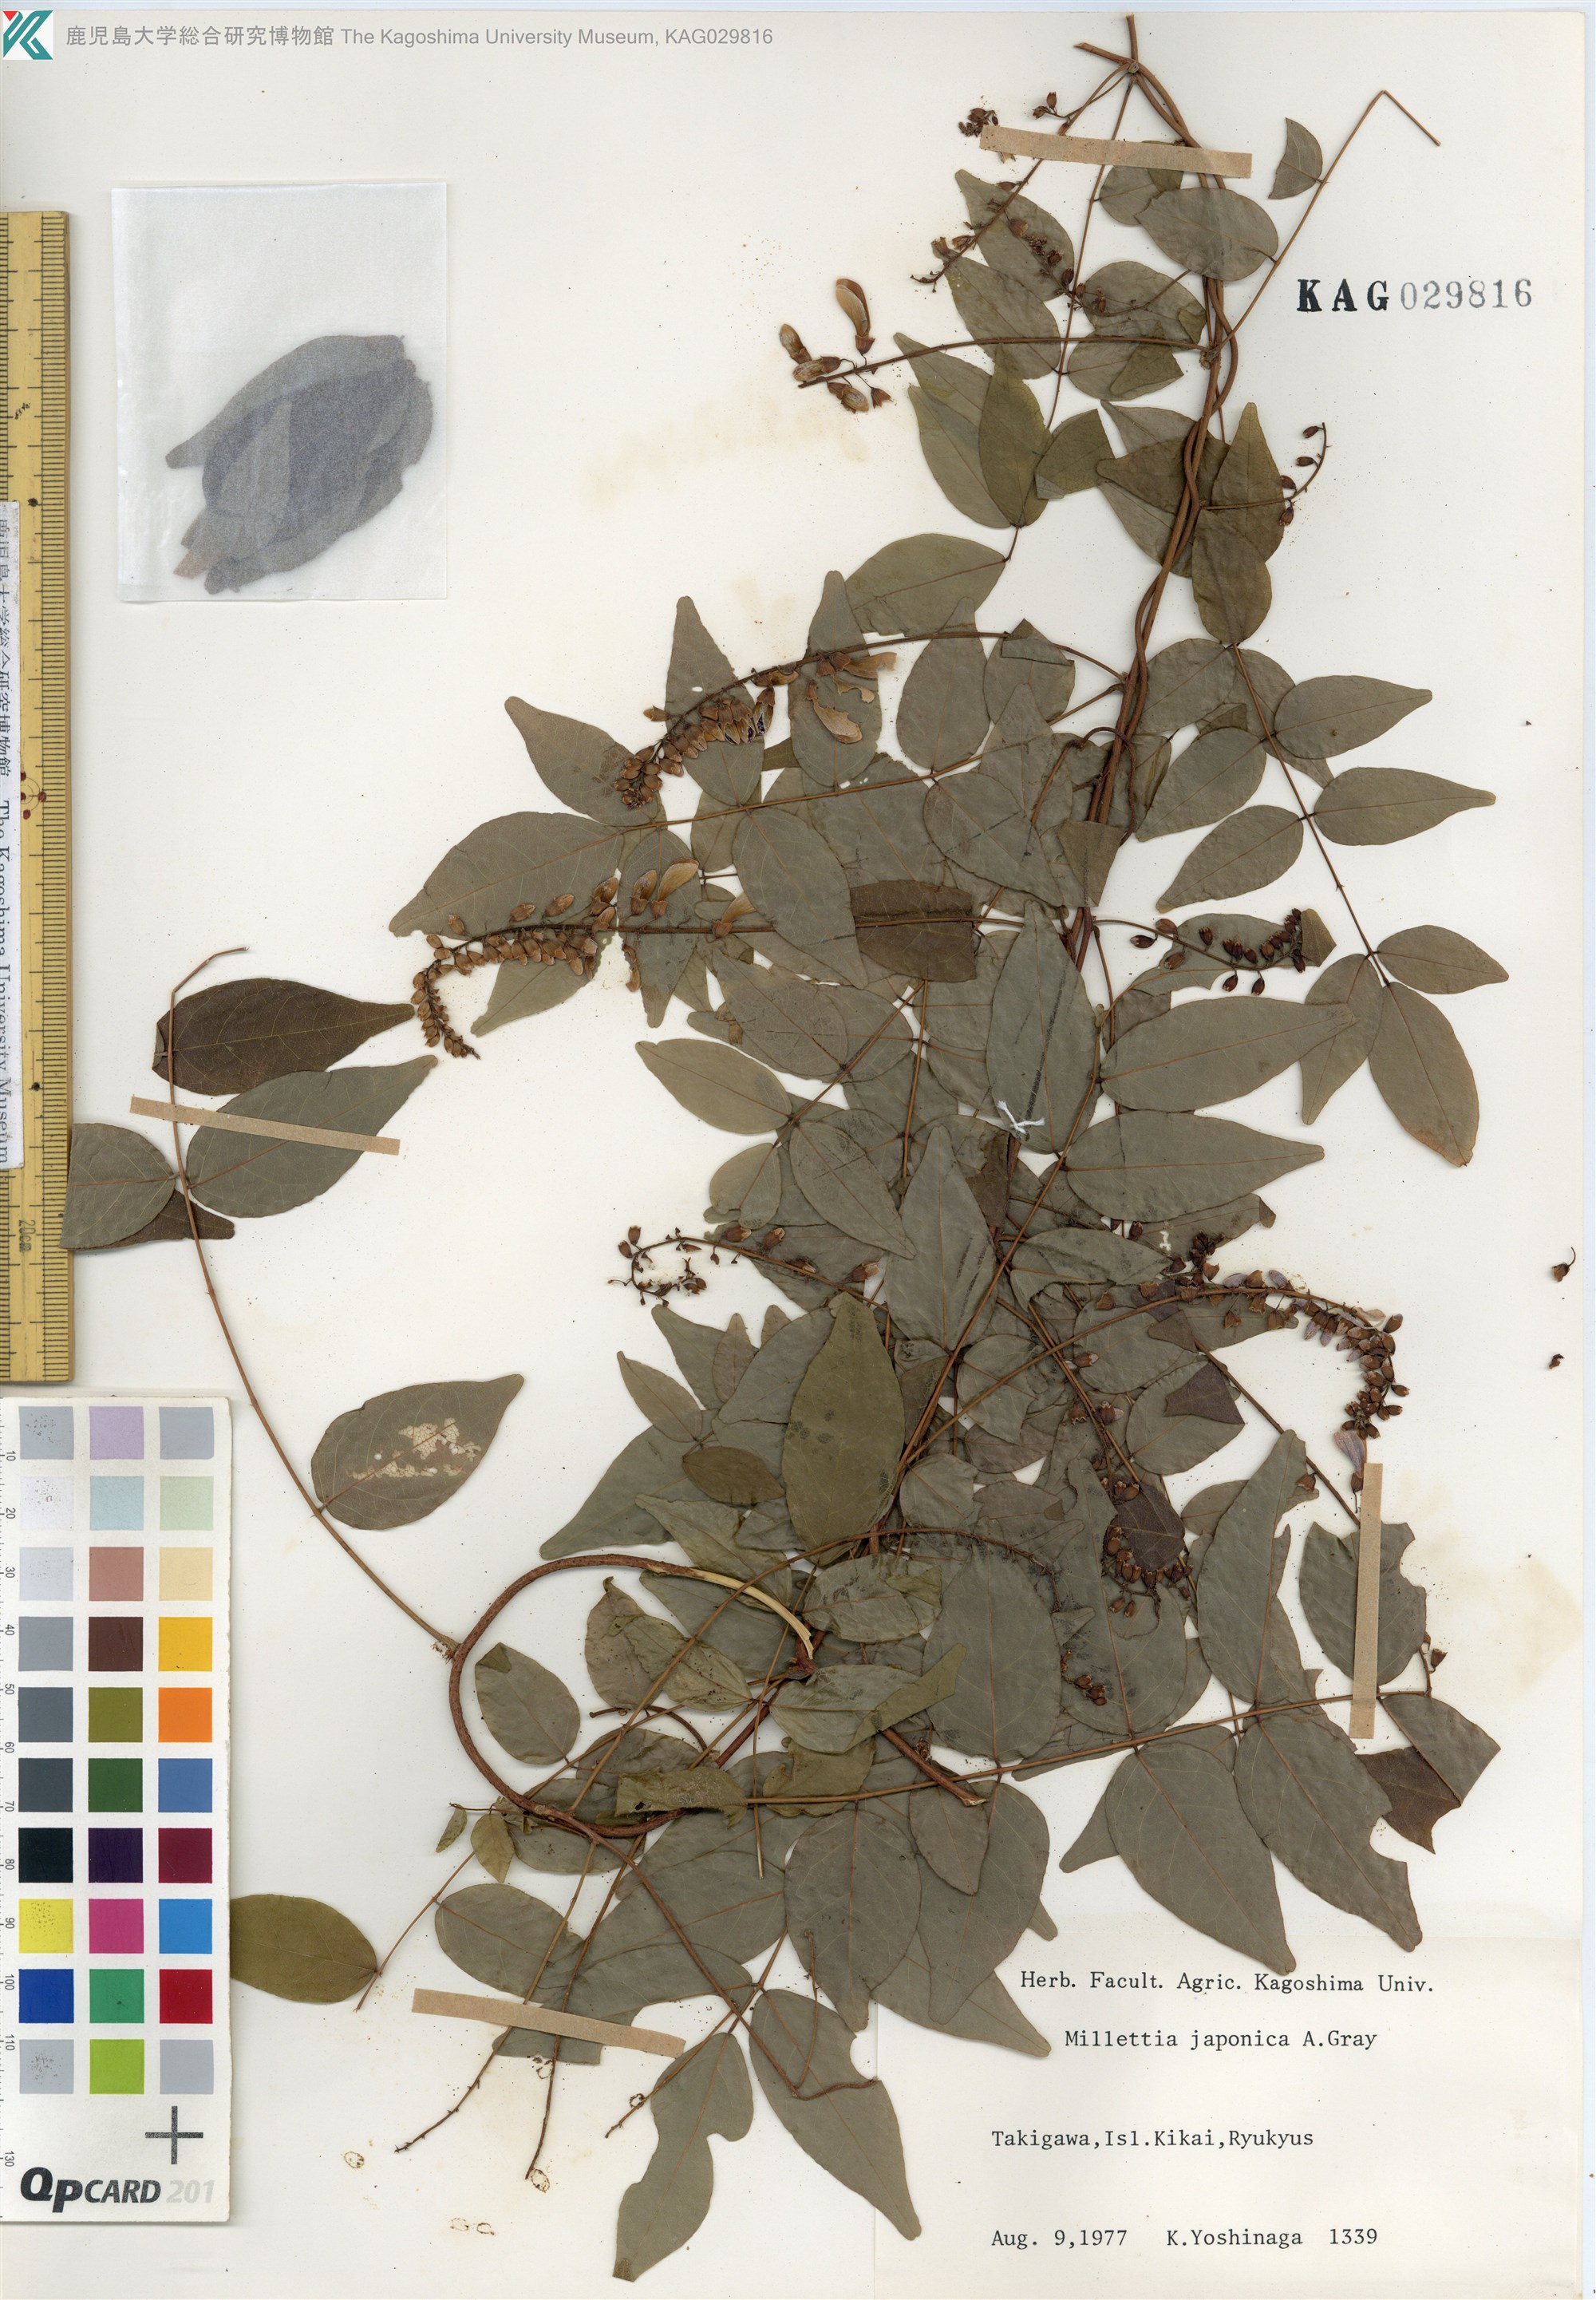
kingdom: Plantae
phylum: Tracheophyta
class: Magnoliopsida
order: Fabales
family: Fabaceae
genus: Wisteriopsis
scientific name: Wisteriopsis japonica
